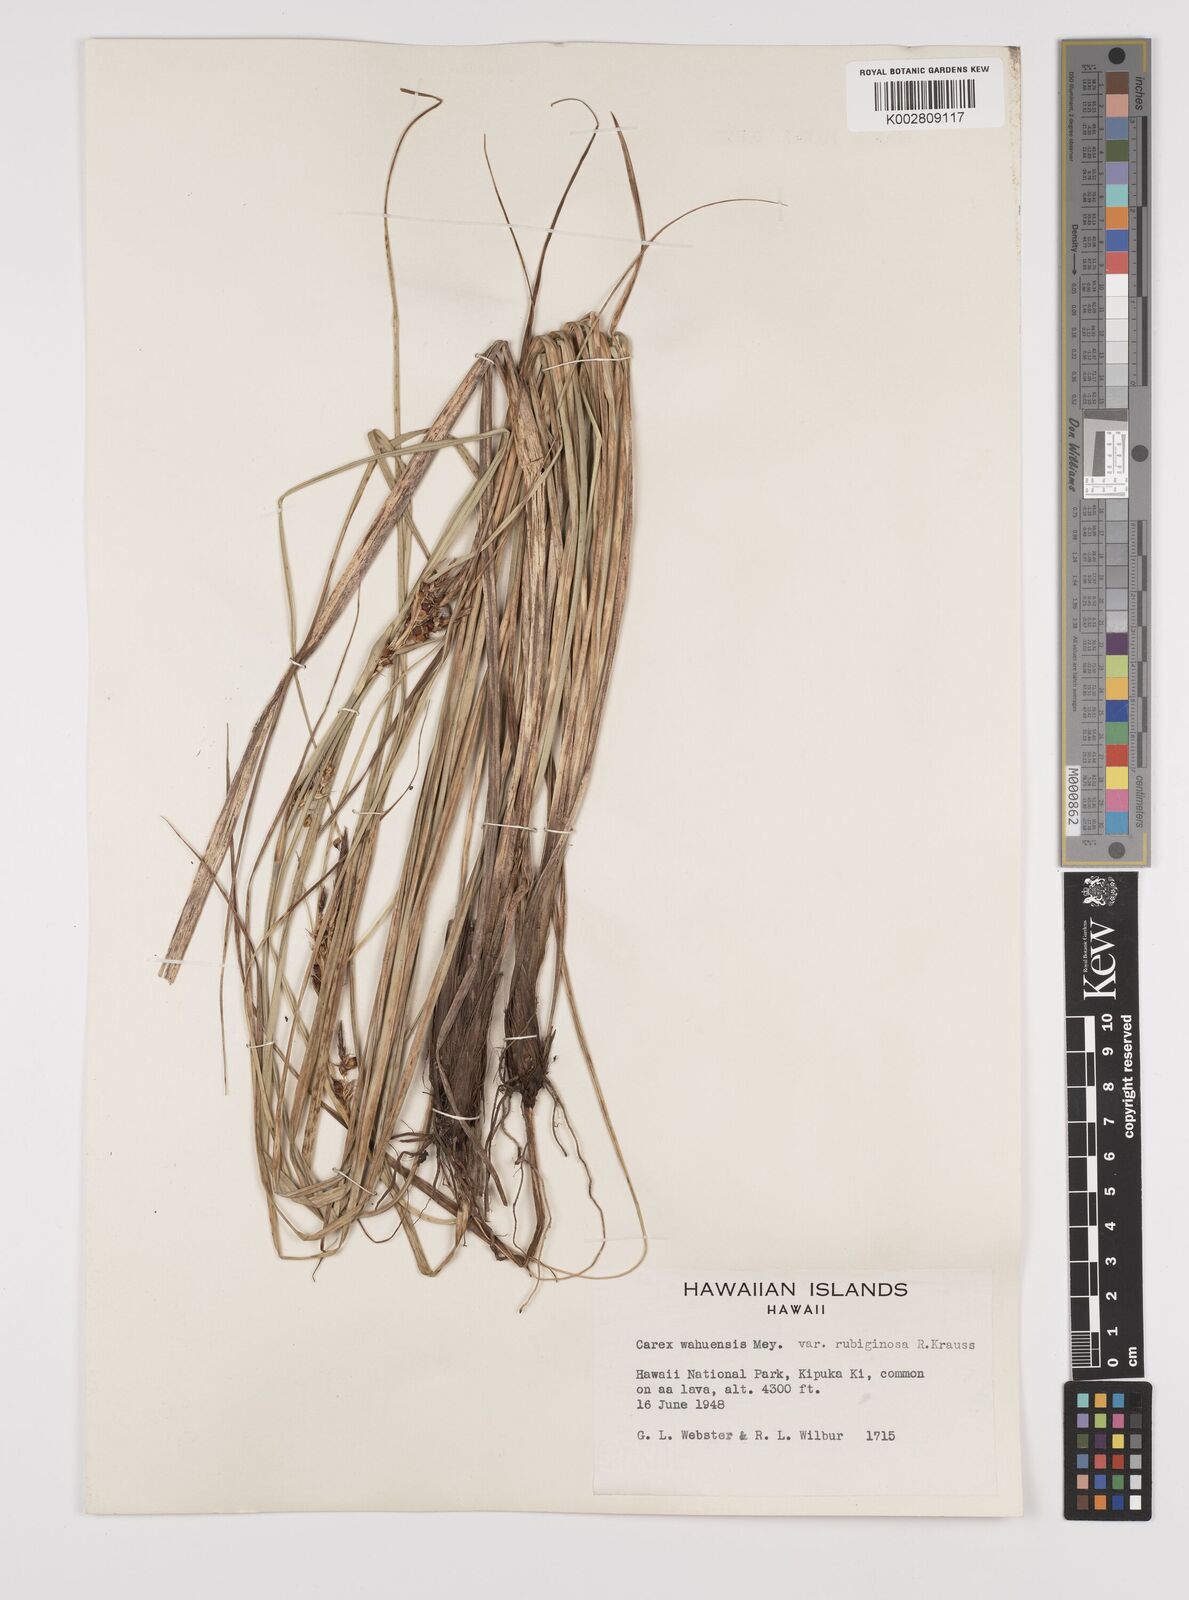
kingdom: Plantae
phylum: Tracheophyta
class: Liliopsida
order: Poales
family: Cyperaceae
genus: Carex
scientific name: Carex wahuensis
